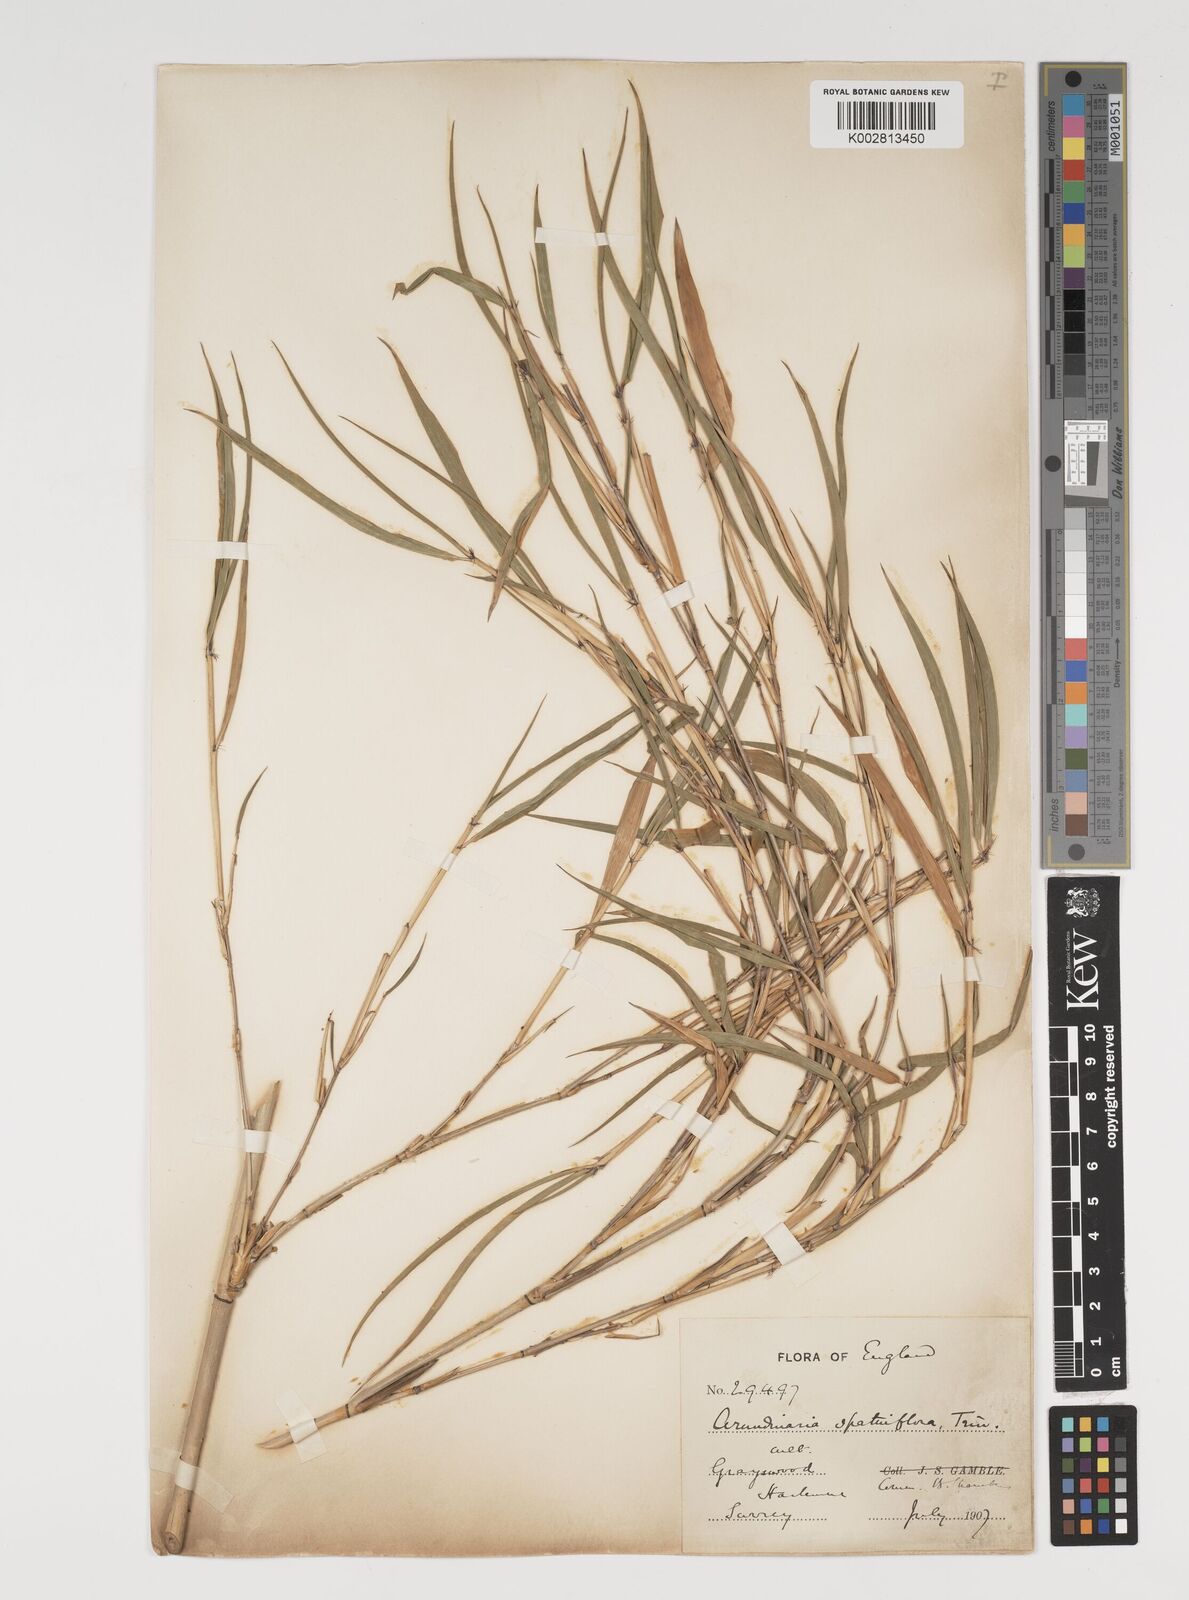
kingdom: Plantae
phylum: Tracheophyta
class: Liliopsida
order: Poales
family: Poaceae
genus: Thamnocalamus
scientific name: Thamnocalamus spathiflorus
